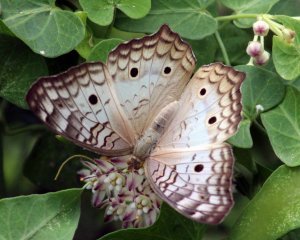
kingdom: Animalia
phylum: Arthropoda
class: Insecta
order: Lepidoptera
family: Nymphalidae
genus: Anartia
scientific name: Anartia jatrophae
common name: White Peacock
